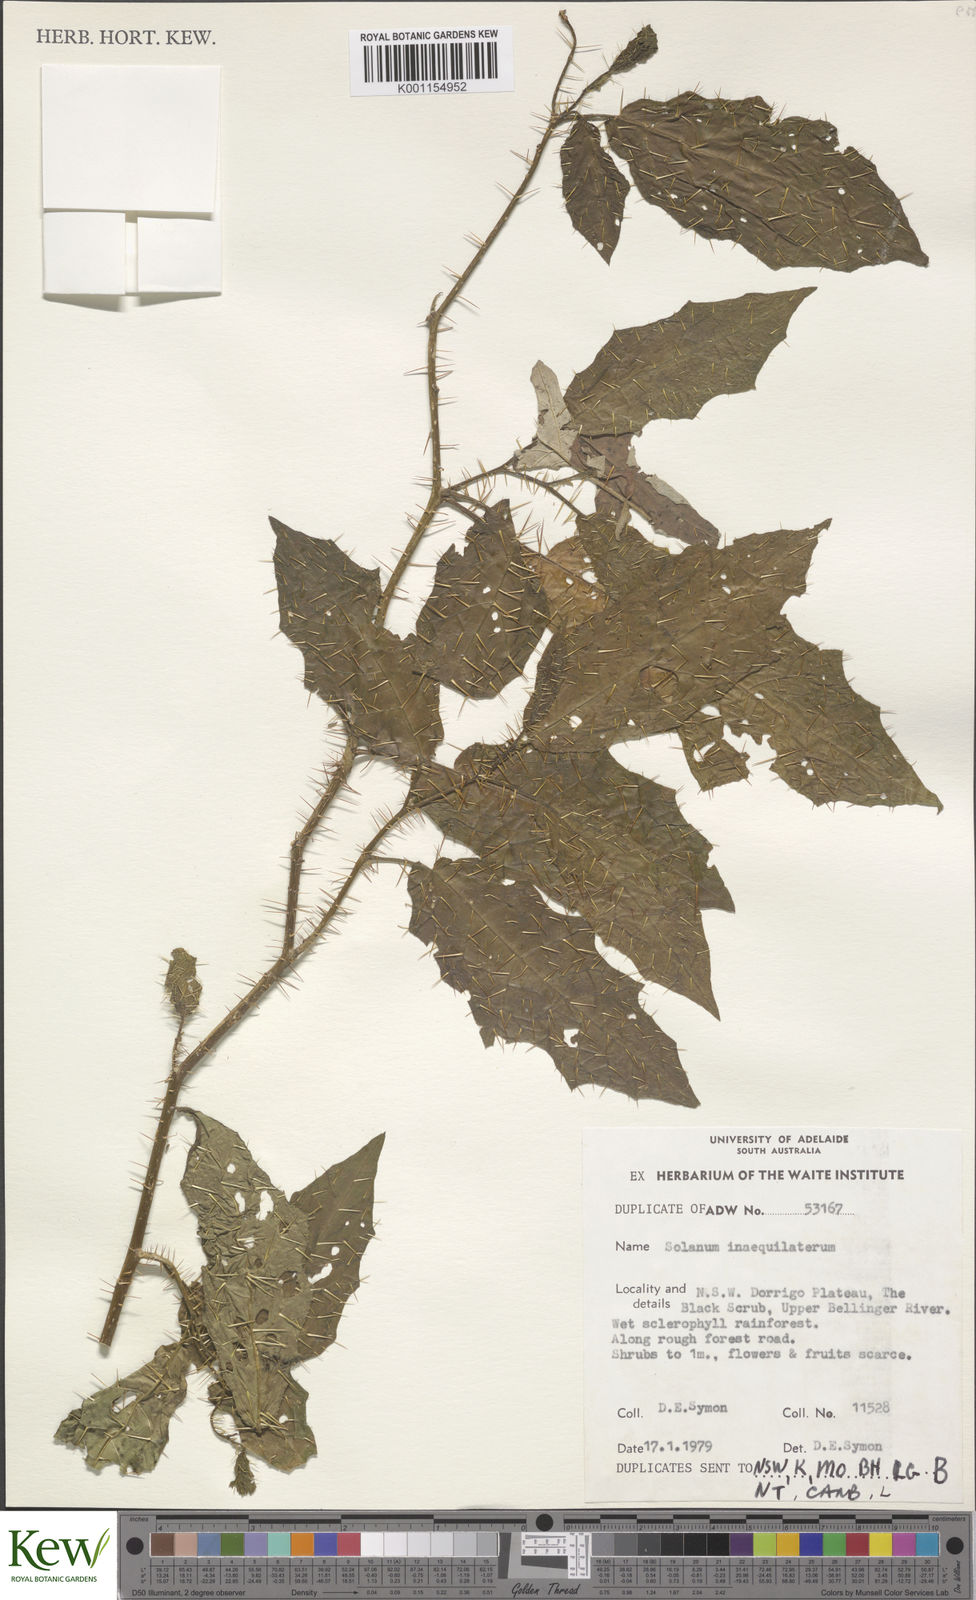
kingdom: Plantae
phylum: Tracheophyta
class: Magnoliopsida
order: Solanales
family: Solanaceae
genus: Solanum
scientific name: Solanum inaequilaterum
